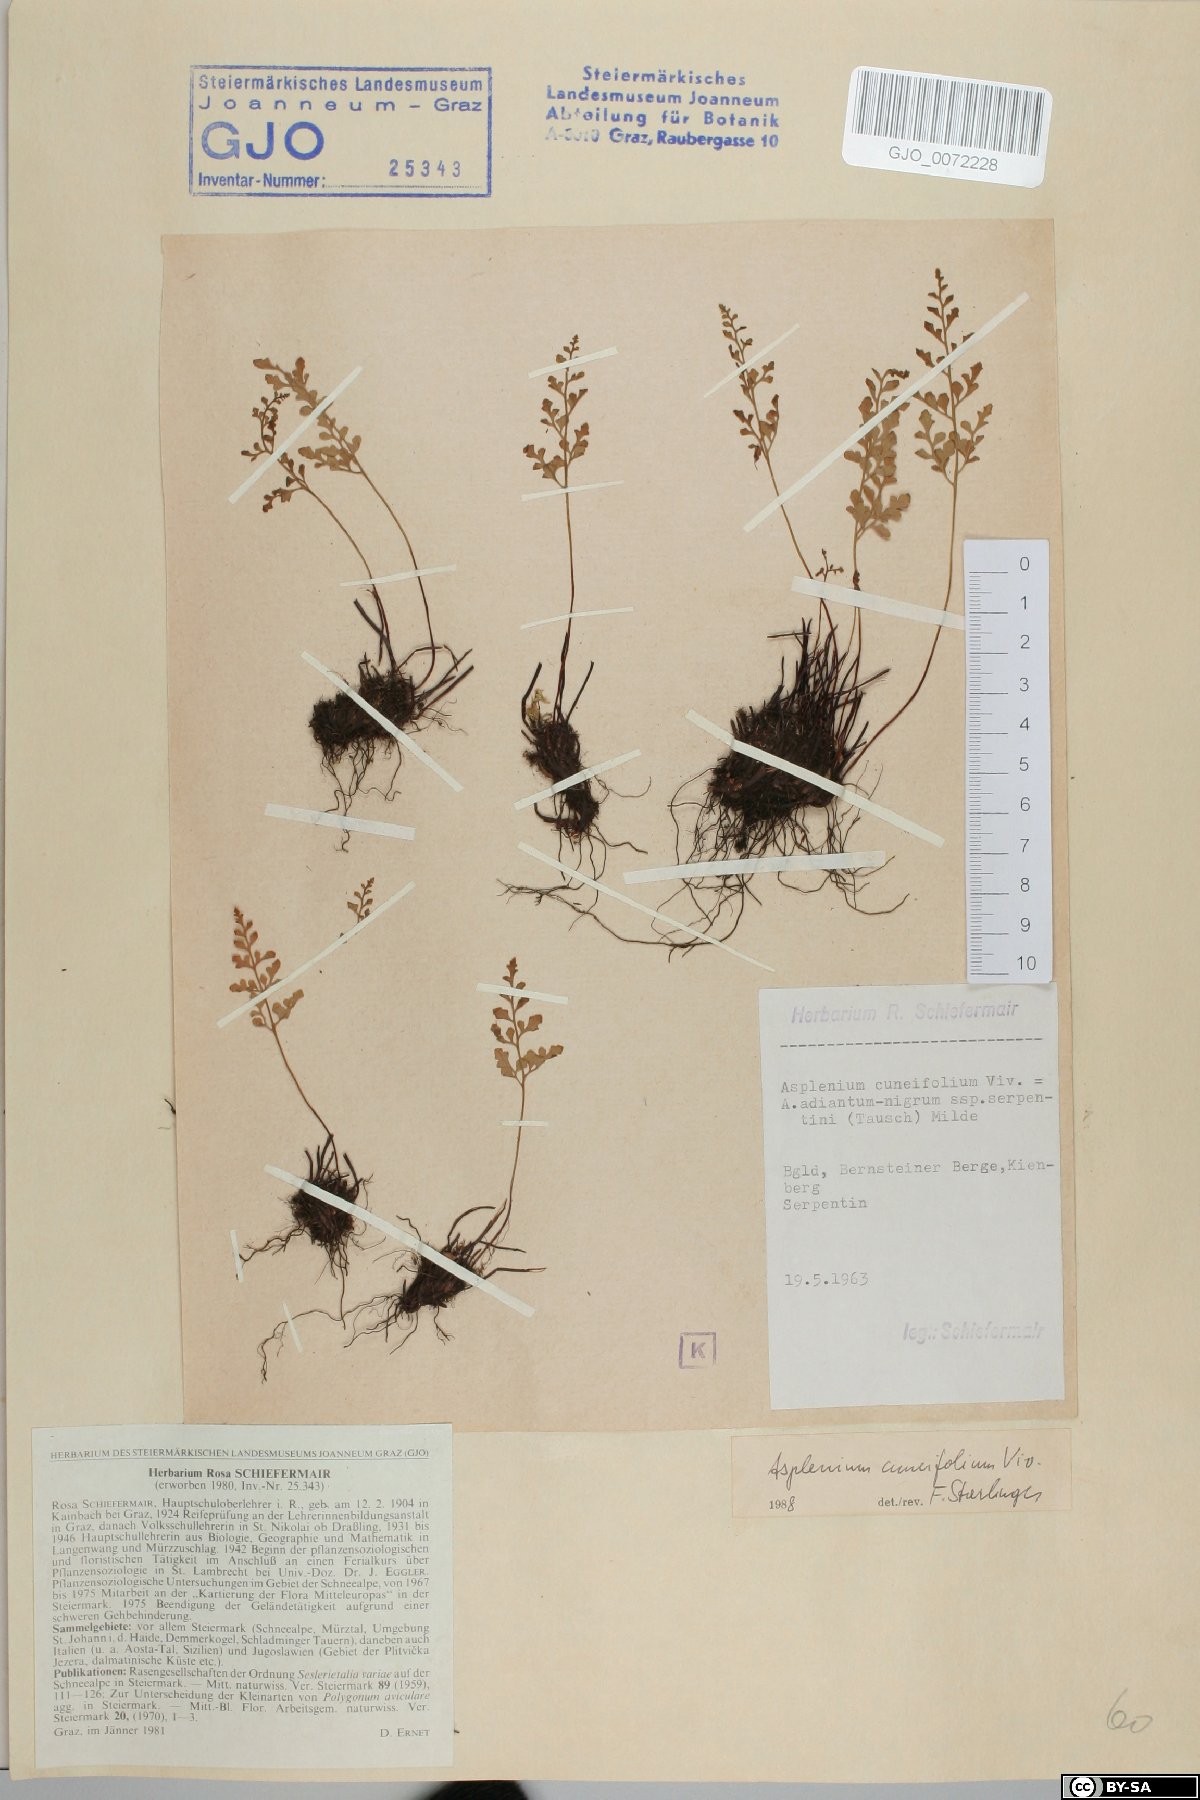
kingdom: Plantae
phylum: Tracheophyta
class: Polypodiopsida
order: Polypodiales
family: Aspleniaceae
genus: Asplenium
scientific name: Asplenium cuneifolium
